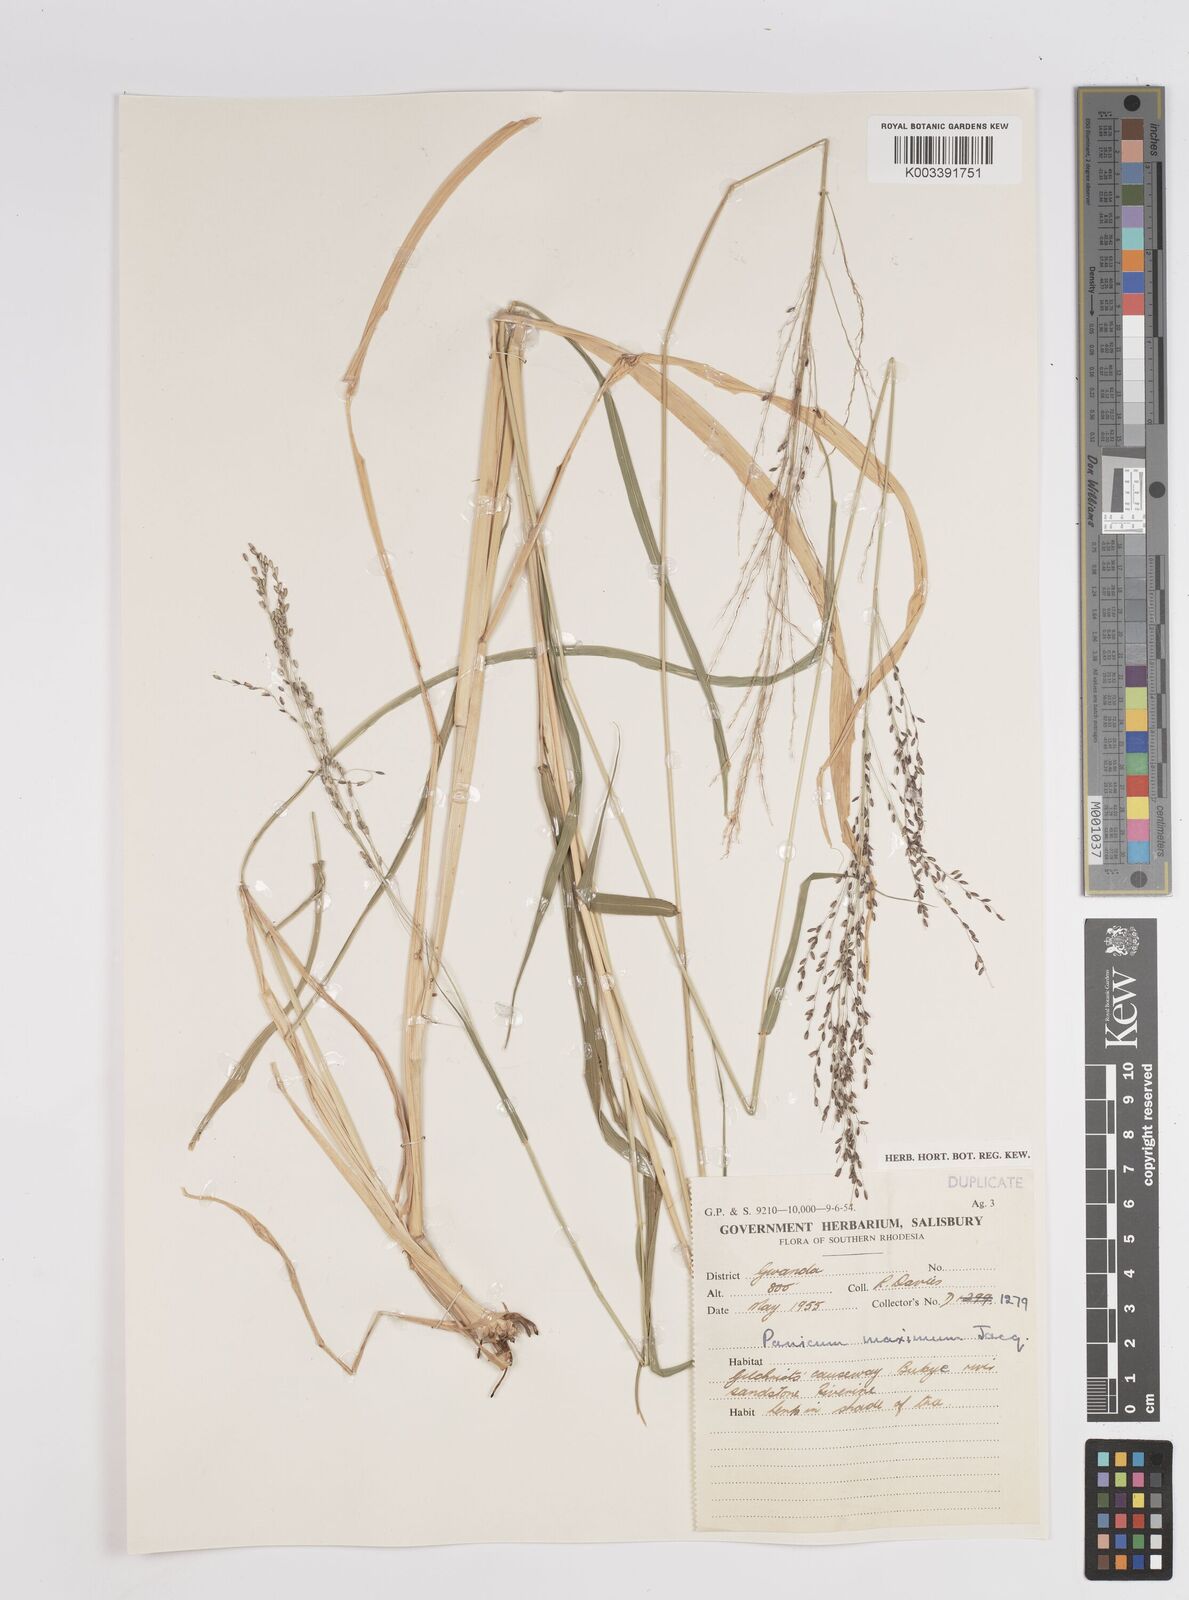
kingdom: Plantae
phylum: Tracheophyta
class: Liliopsida
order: Poales
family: Poaceae
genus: Megathyrsus
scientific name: Megathyrsus maximus
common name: Guineagrass
